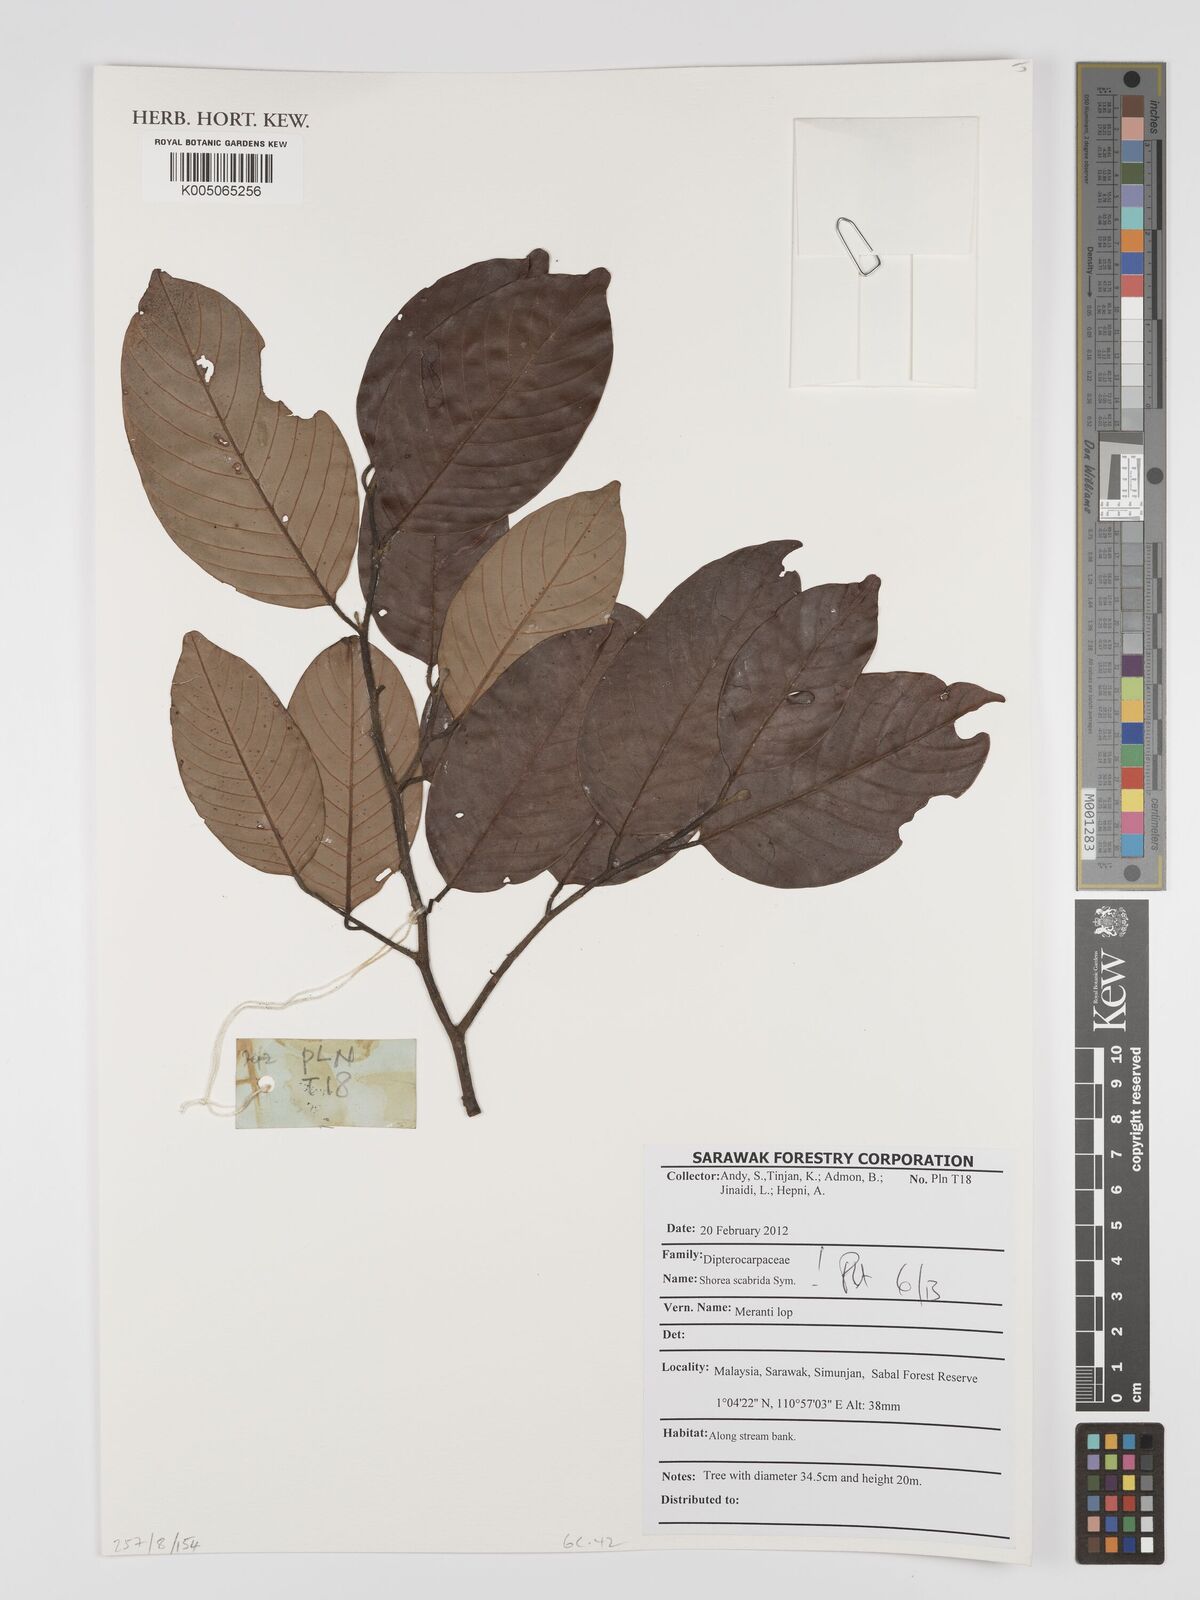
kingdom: Plantae
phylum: Tracheophyta
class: Magnoliopsida
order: Malvales
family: Dipterocarpaceae
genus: Shorea
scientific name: Shorea scabrida
